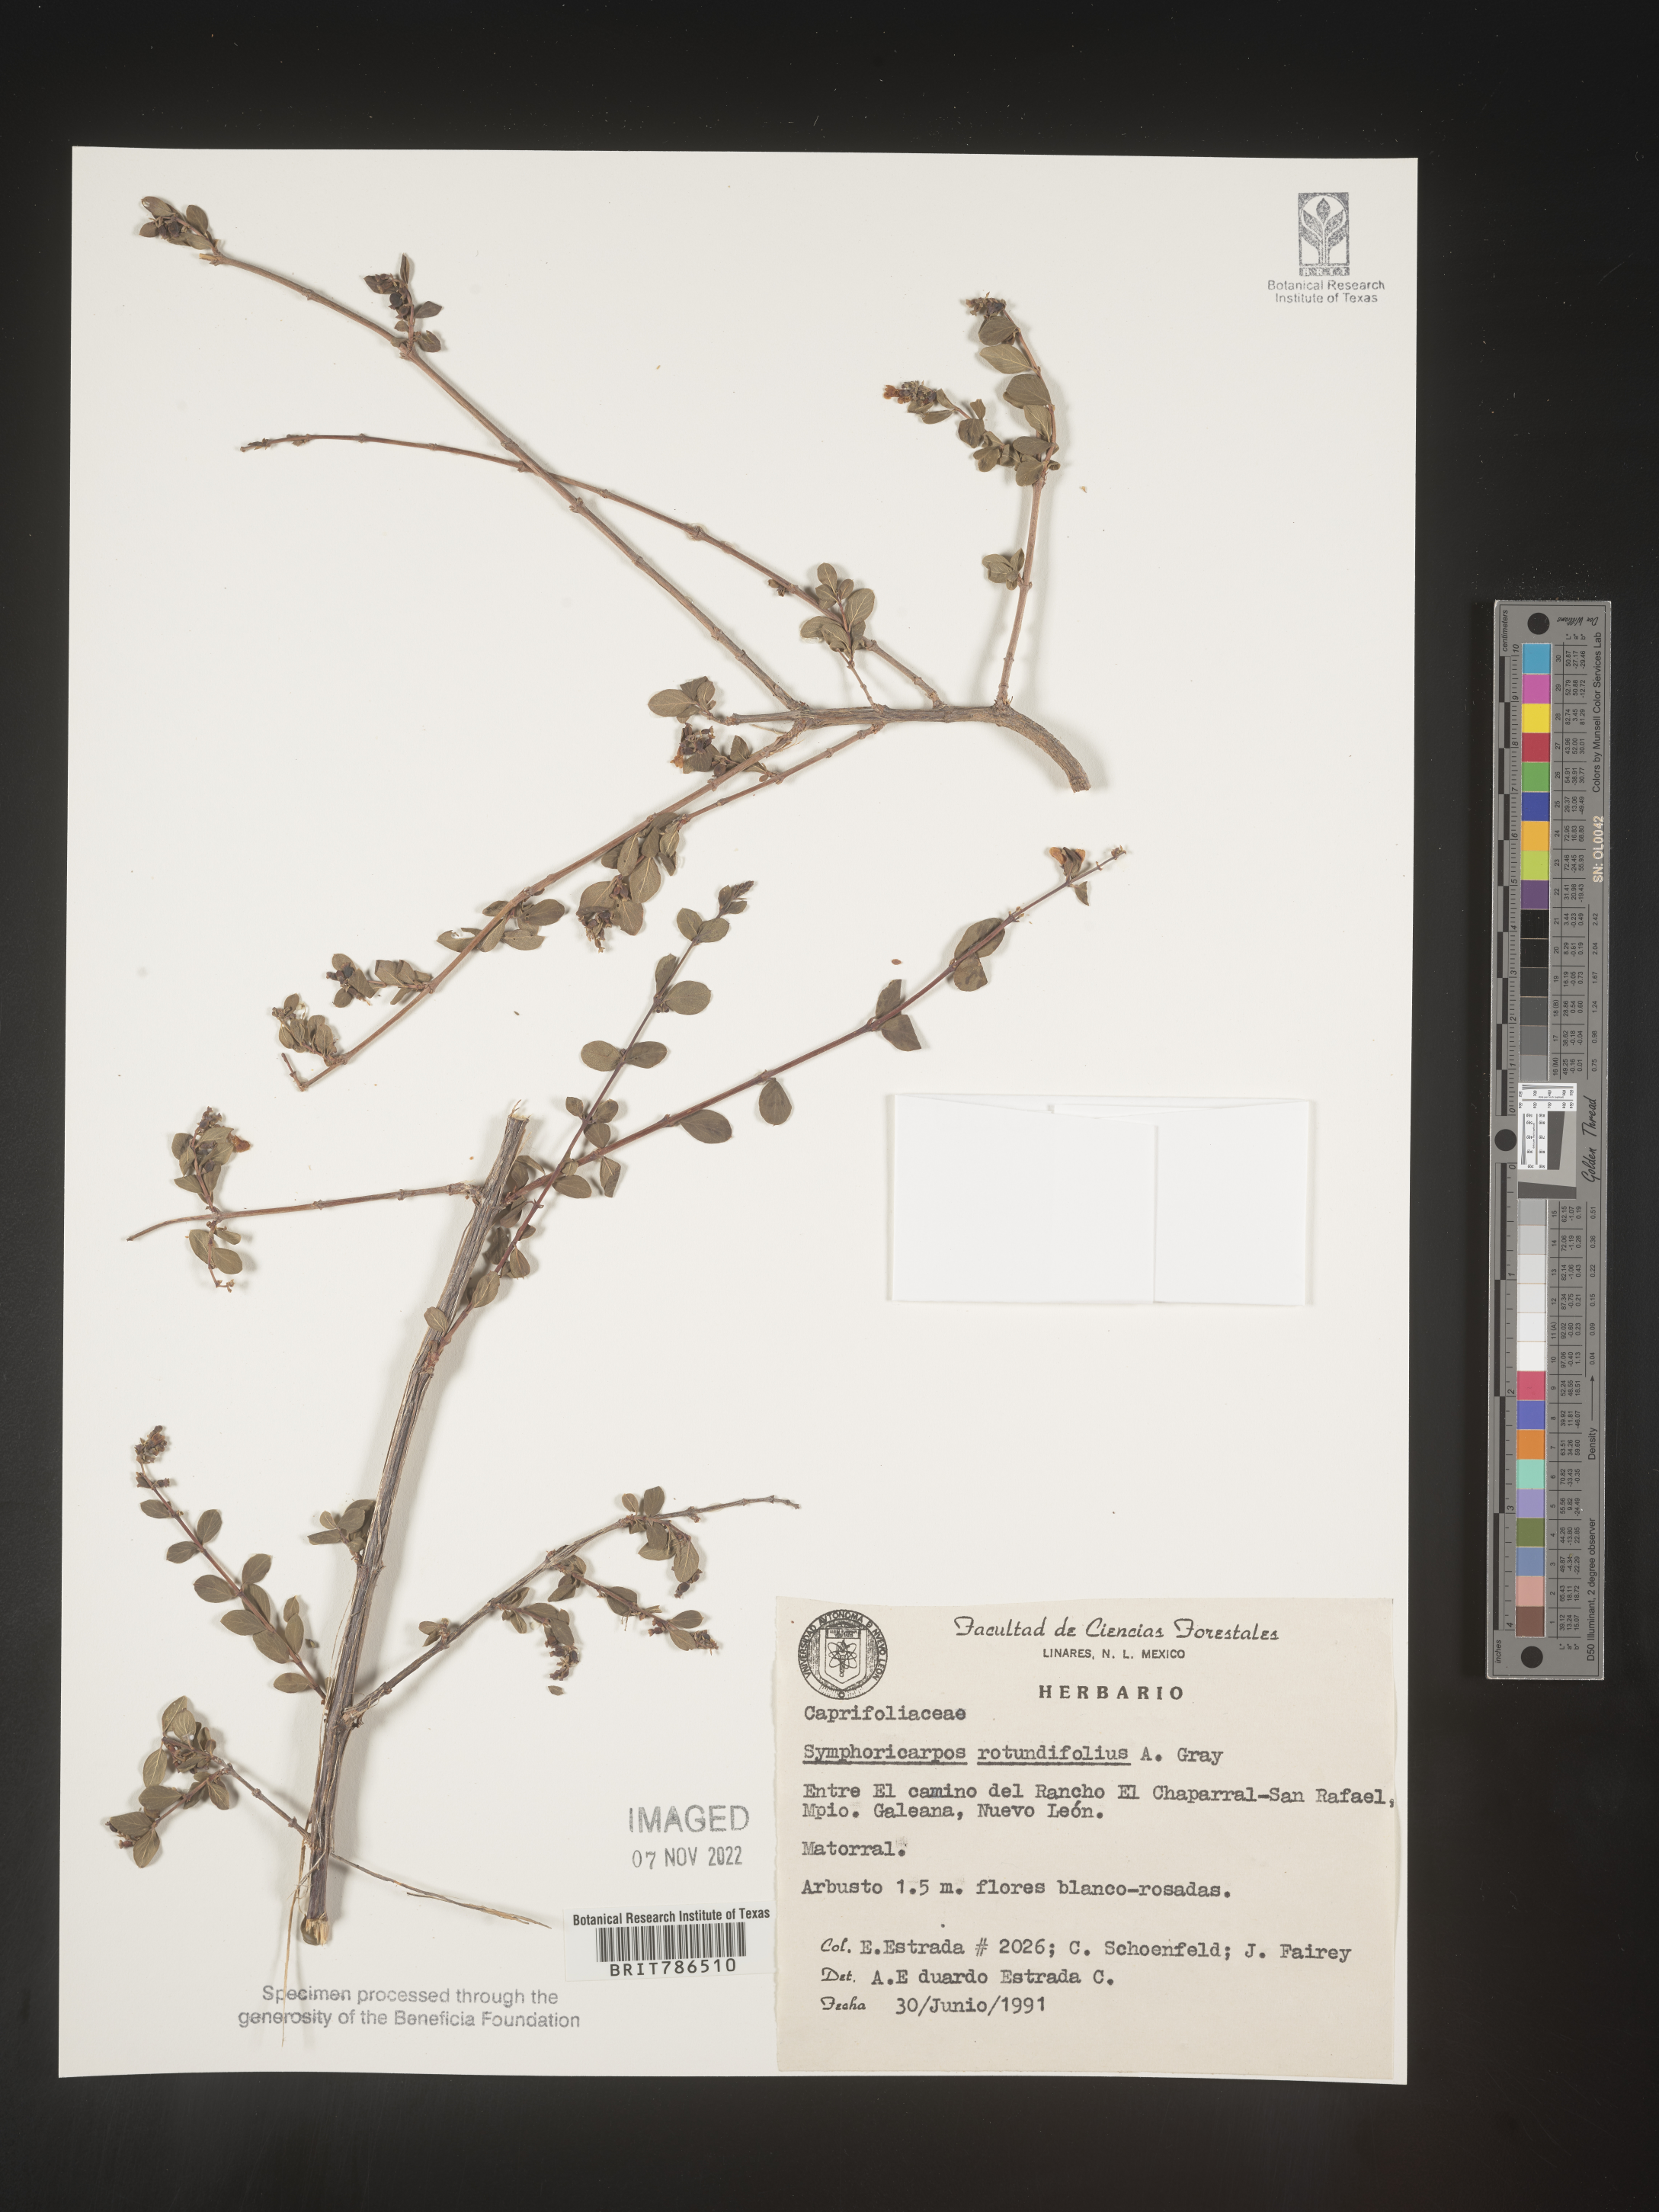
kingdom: Plantae
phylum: Tracheophyta
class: Magnoliopsida
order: Dipsacales
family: Caprifoliaceae
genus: Symphoricarpos
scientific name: Symphoricarpos
